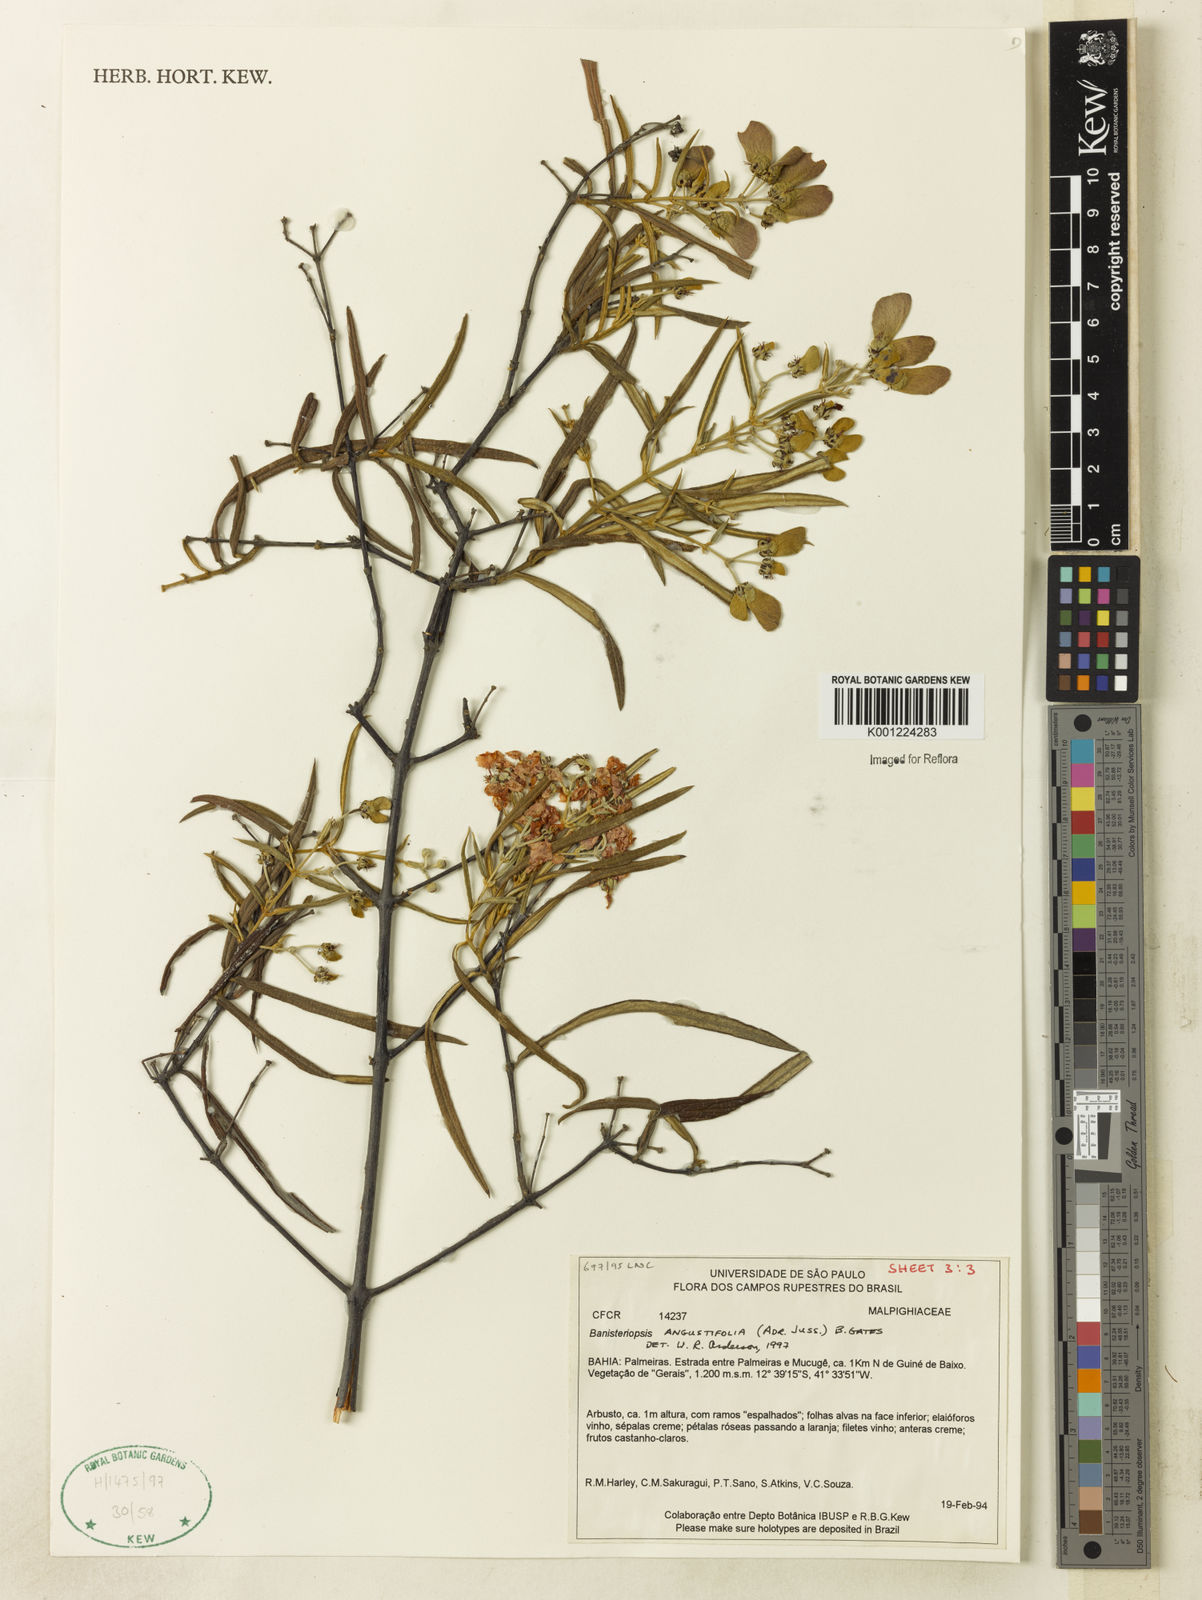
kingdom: Plantae
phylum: Tracheophyta
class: Magnoliopsida
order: Malpighiales
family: Malpighiaceae
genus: Banisteriopsis
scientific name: Banisteriopsis angustifolia
